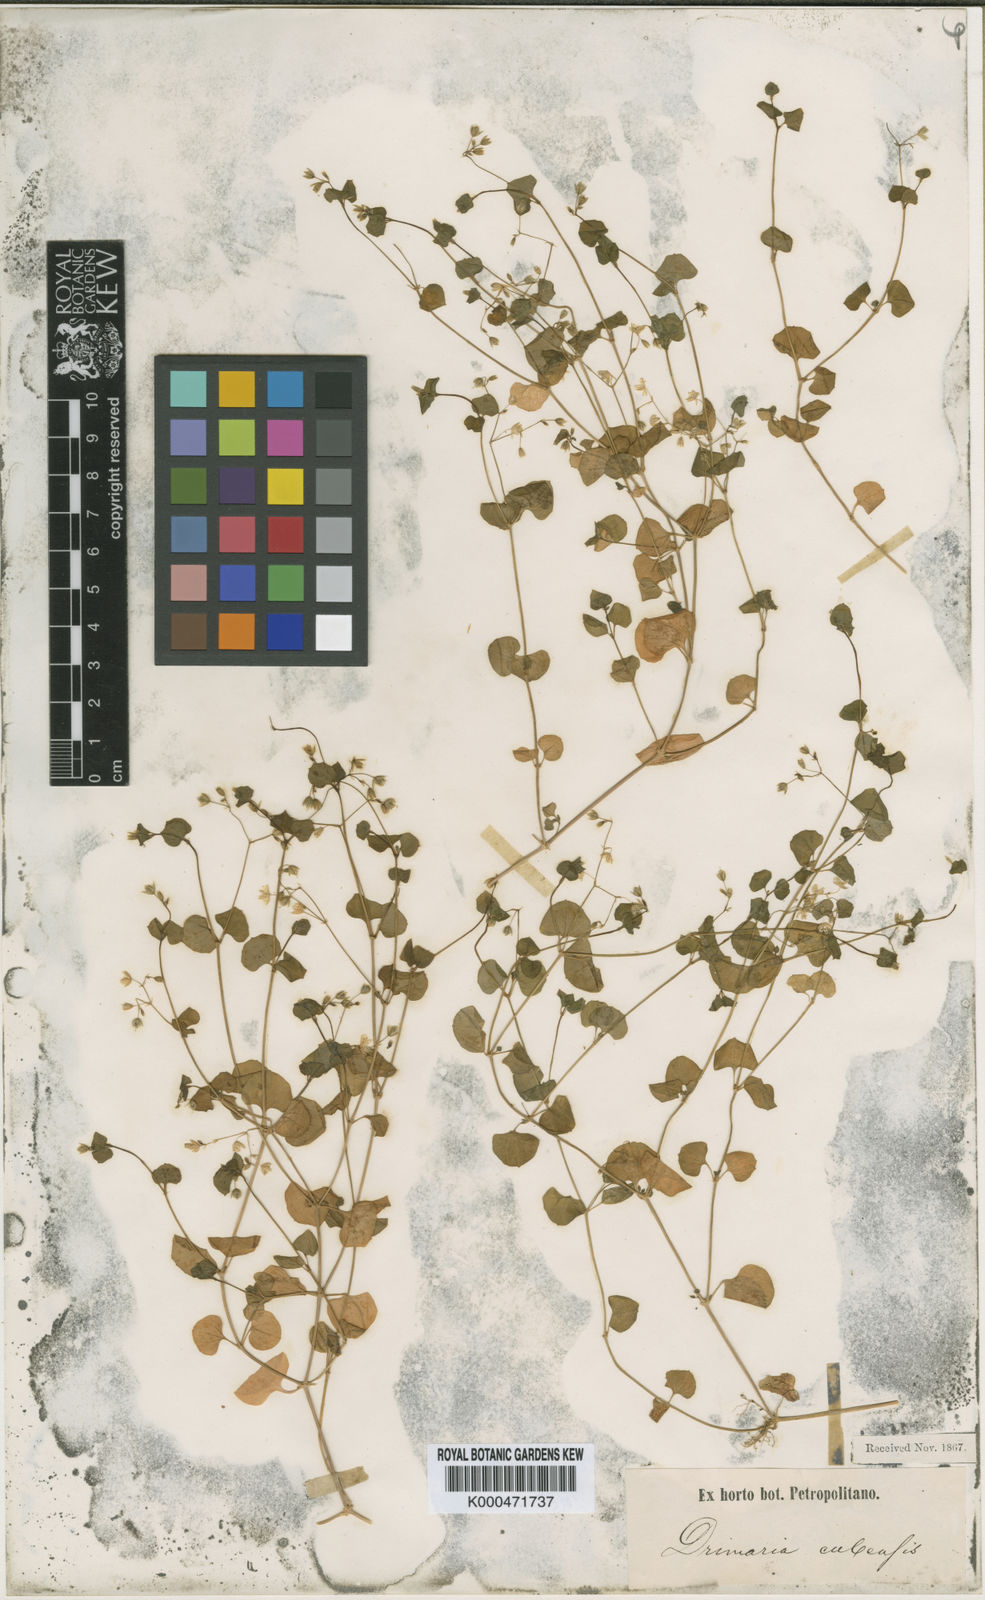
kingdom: Plantae
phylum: Tracheophyta
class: Magnoliopsida
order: Caryophyllales
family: Caryophyllaceae
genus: Drymaria
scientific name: Drymaria villosa
